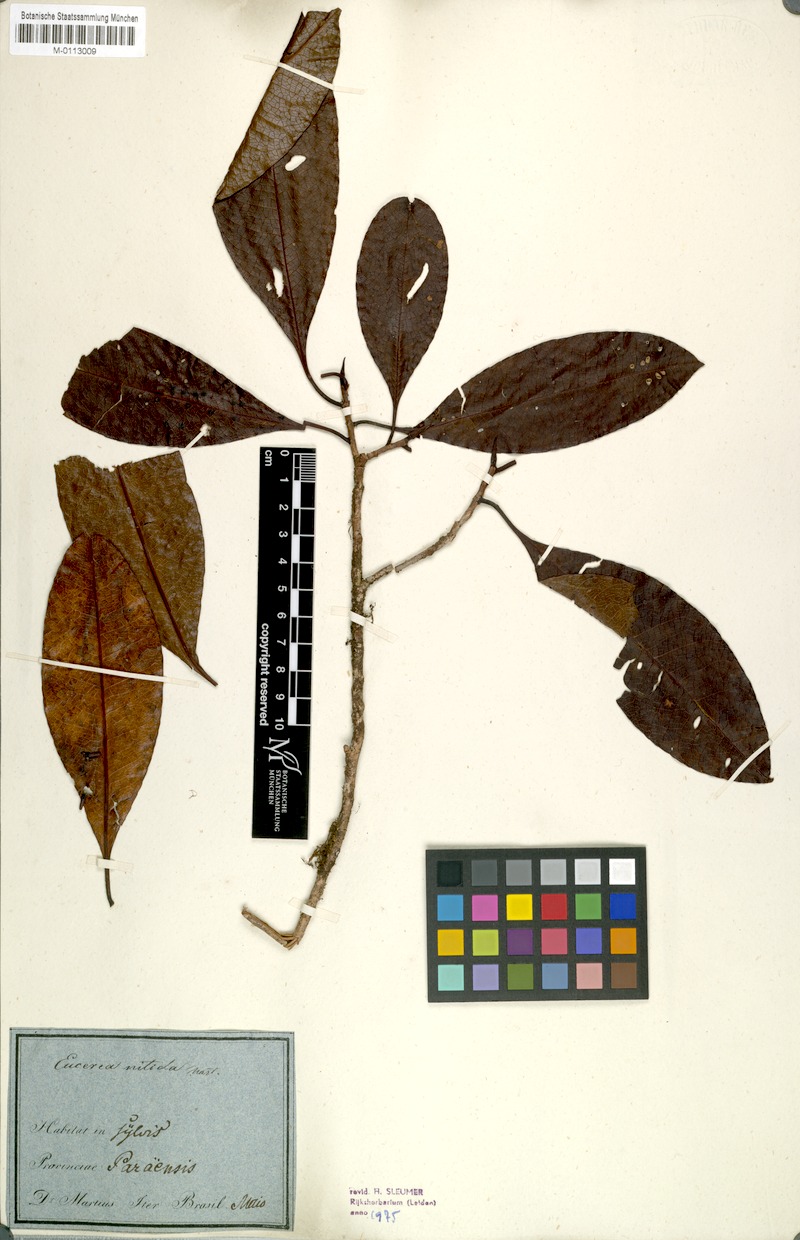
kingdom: Plantae
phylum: Tracheophyta
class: Magnoliopsida
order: Malpighiales
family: Salicaceae
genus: Casearia
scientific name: Casearia euceraea
